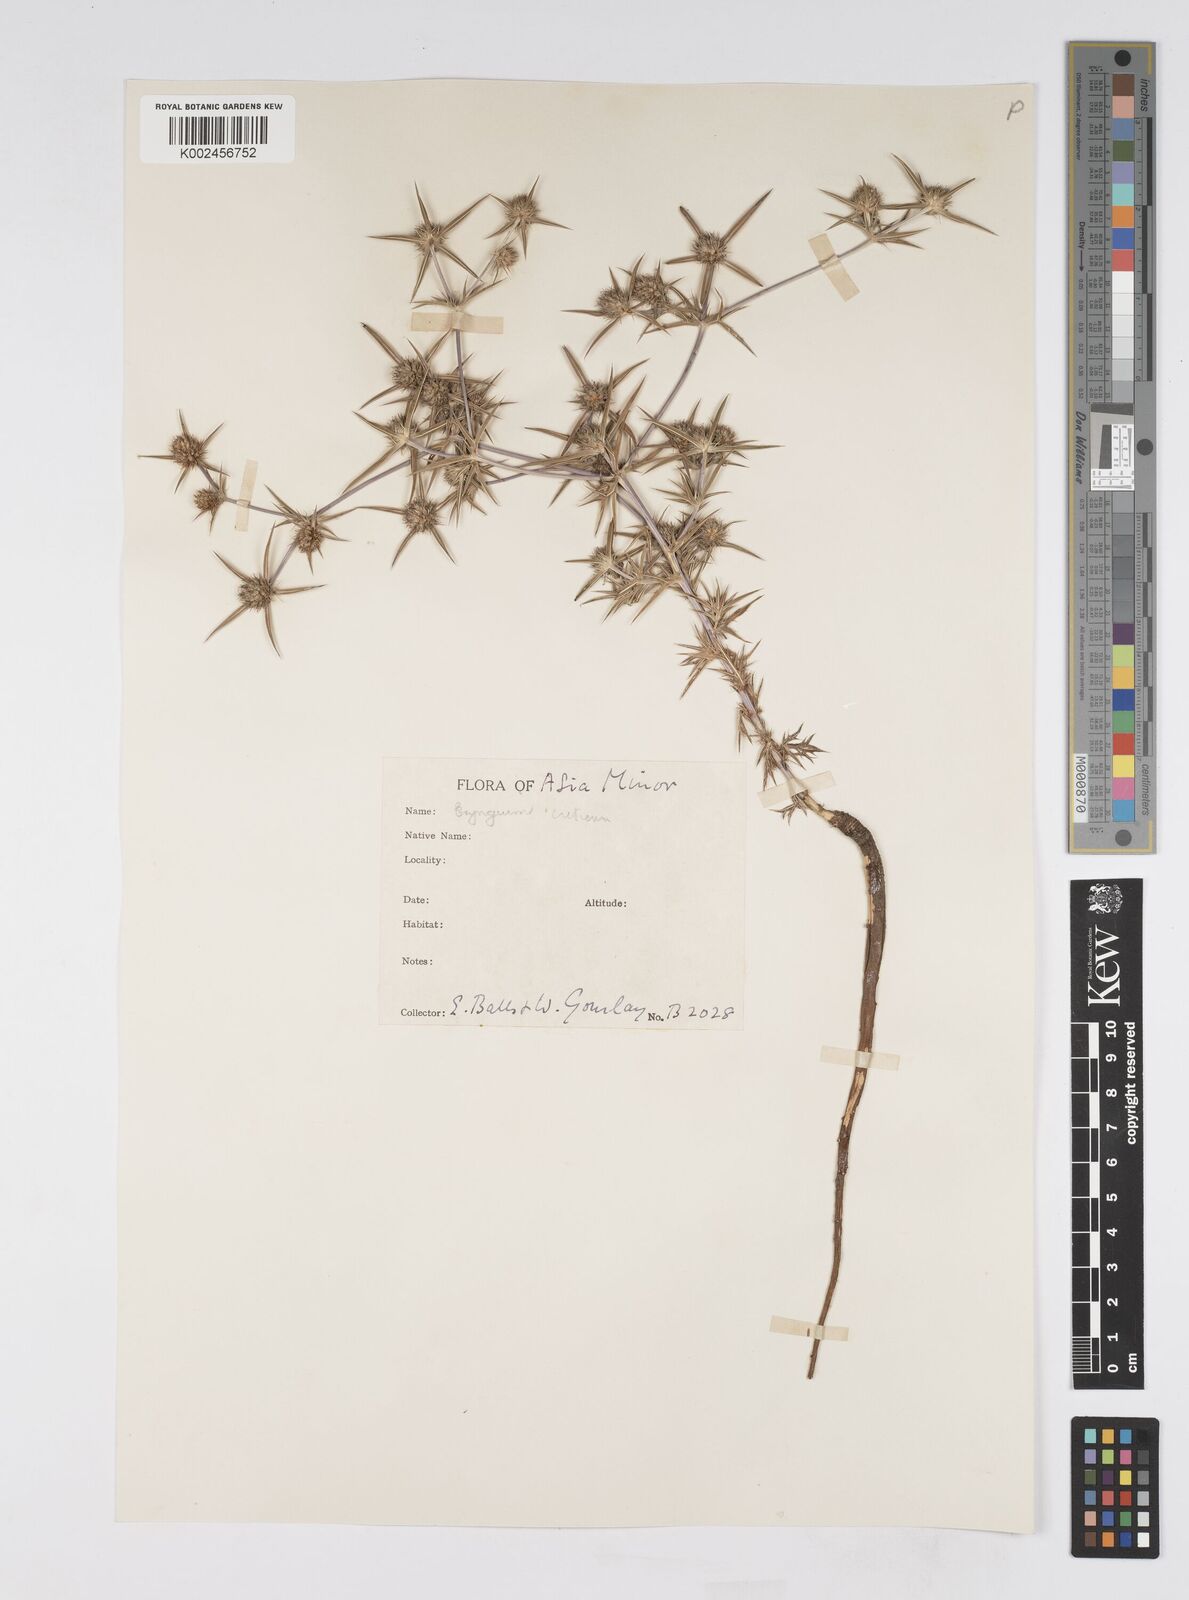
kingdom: Plantae
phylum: Tracheophyta
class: Magnoliopsida
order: Apiales
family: Apiaceae
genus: Eryngium
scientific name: Eryngium creticum
